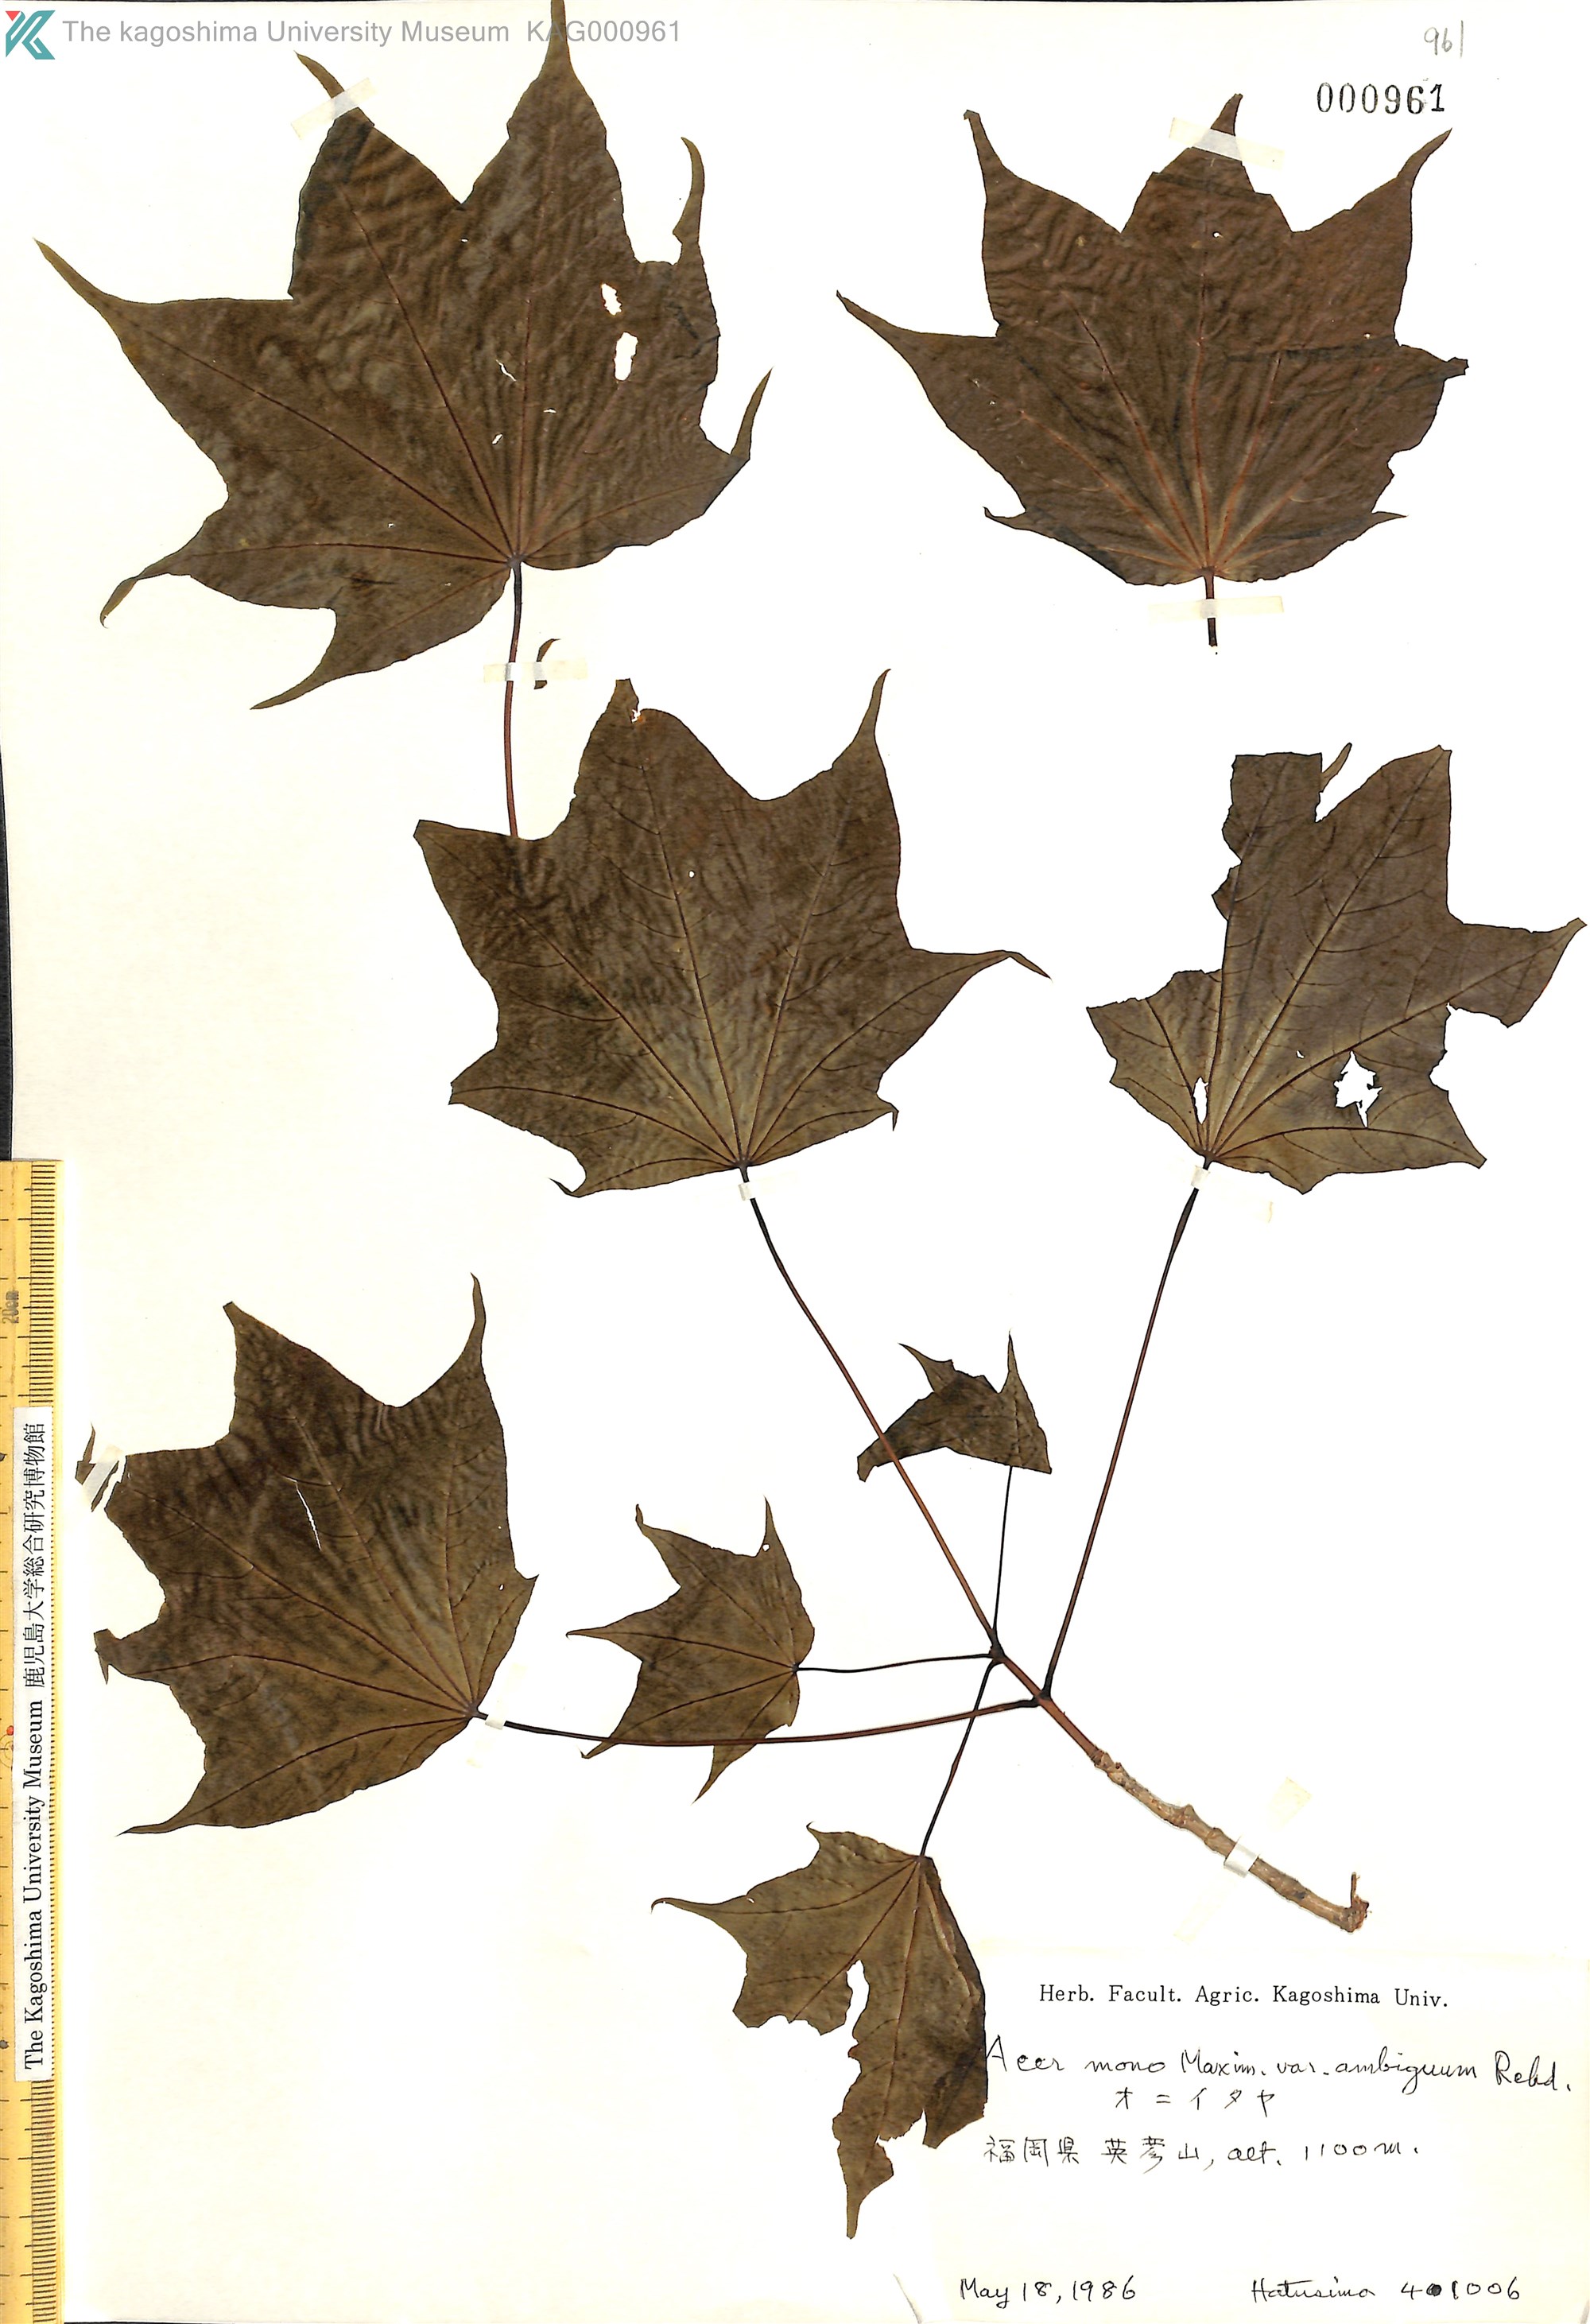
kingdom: Plantae
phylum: Tracheophyta
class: Magnoliopsida
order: Sapindales
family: Sapindaceae
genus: Acer
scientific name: Acer pictum
